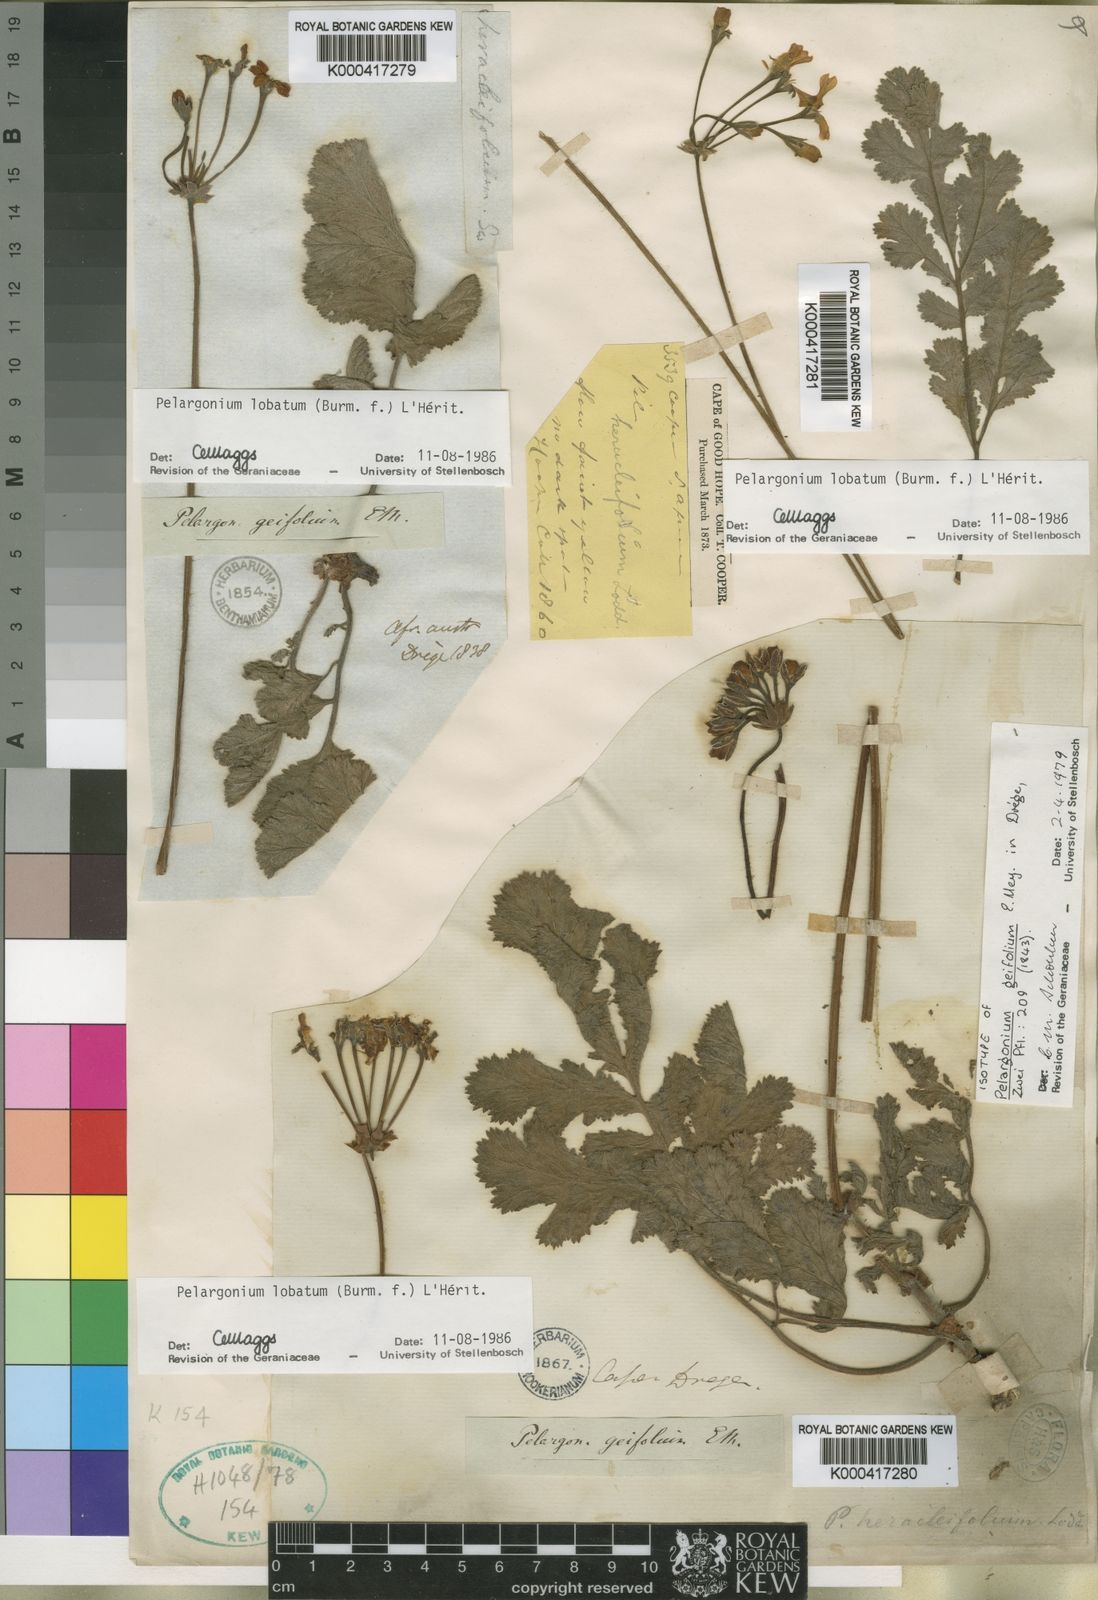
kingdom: Plantae
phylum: Tracheophyta
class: Magnoliopsida
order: Geraniales
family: Geraniaceae
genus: Pelargonium
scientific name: Pelargonium
